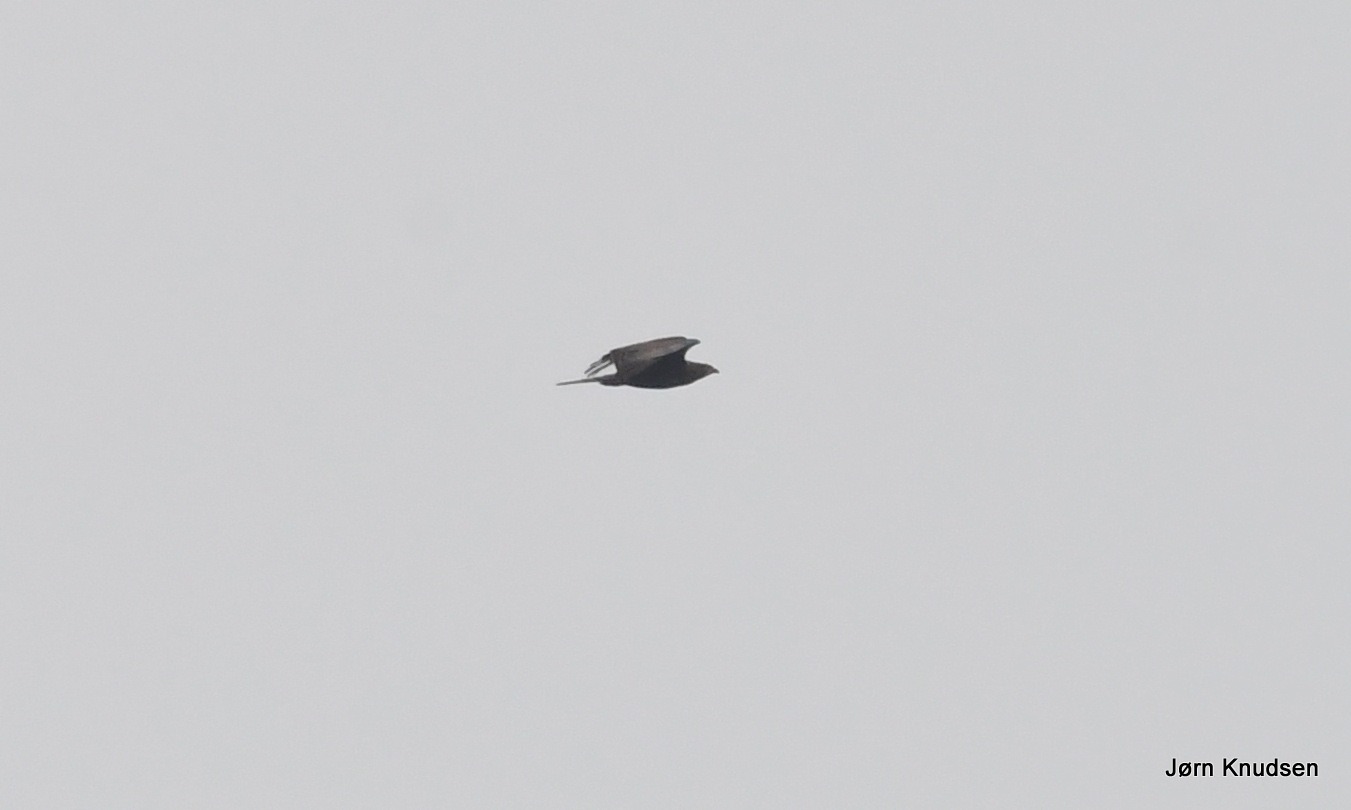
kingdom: Animalia
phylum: Chordata
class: Aves
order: Accipitriformes
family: Accipitridae
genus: Pernis
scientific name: Pernis apivorus
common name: Hvepsevåge
